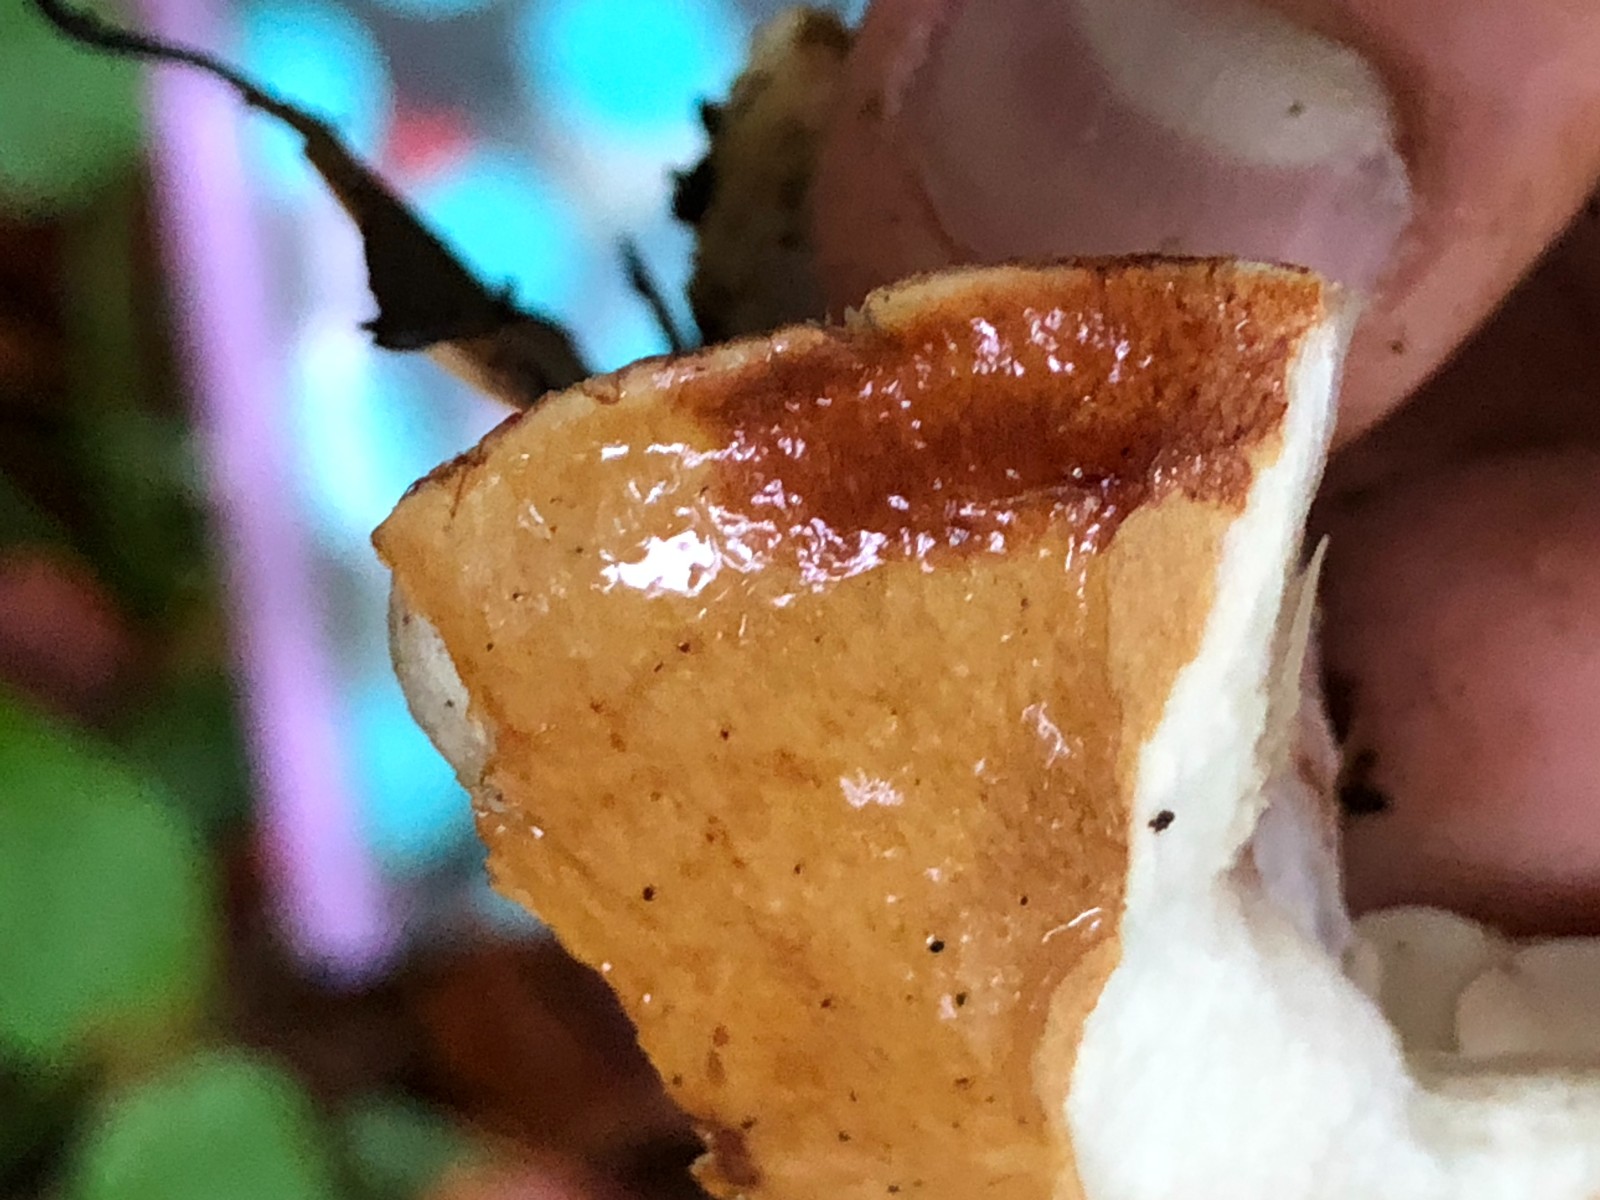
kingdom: Fungi
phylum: Basidiomycota
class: Agaricomycetes
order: Agaricales
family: Cortinariaceae
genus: Cortinarius
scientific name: Cortinarius anserinus
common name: bøge-slørhat
